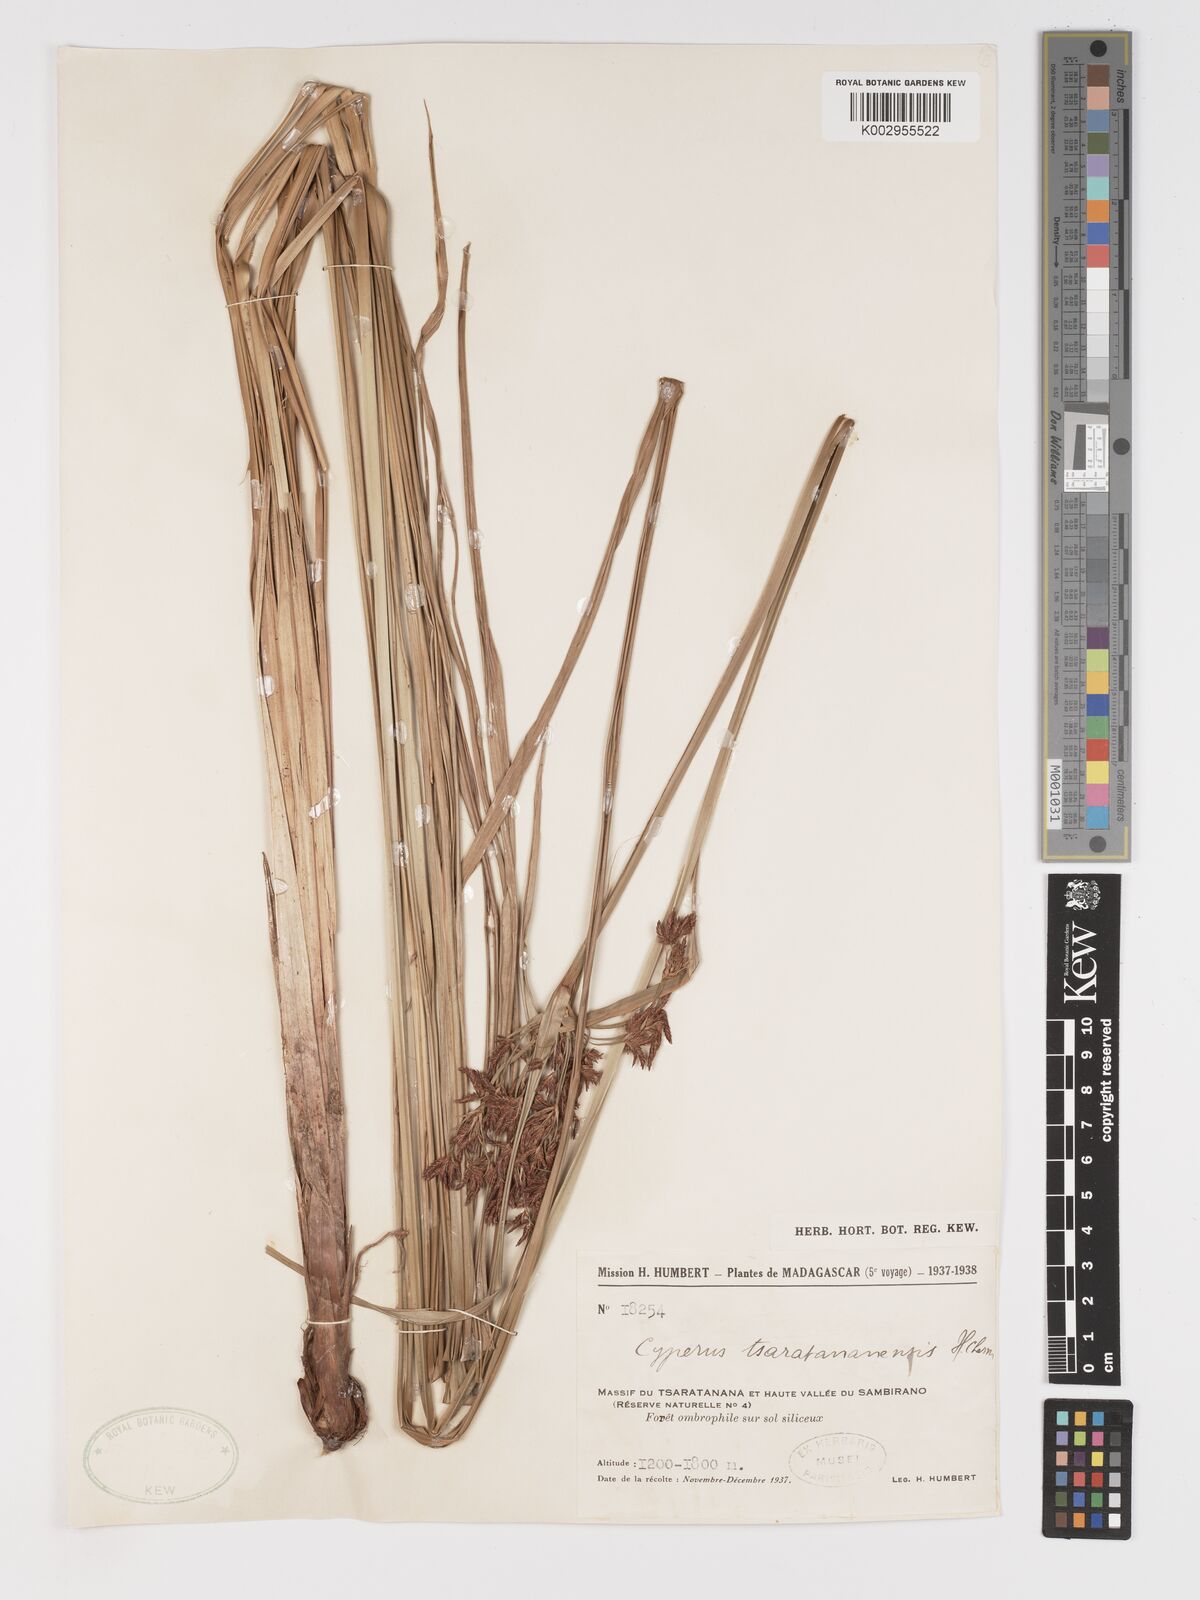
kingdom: Plantae
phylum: Tracheophyta
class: Liliopsida
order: Poales
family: Cyperaceae
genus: Cyperus
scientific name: Cyperus xerophilus
